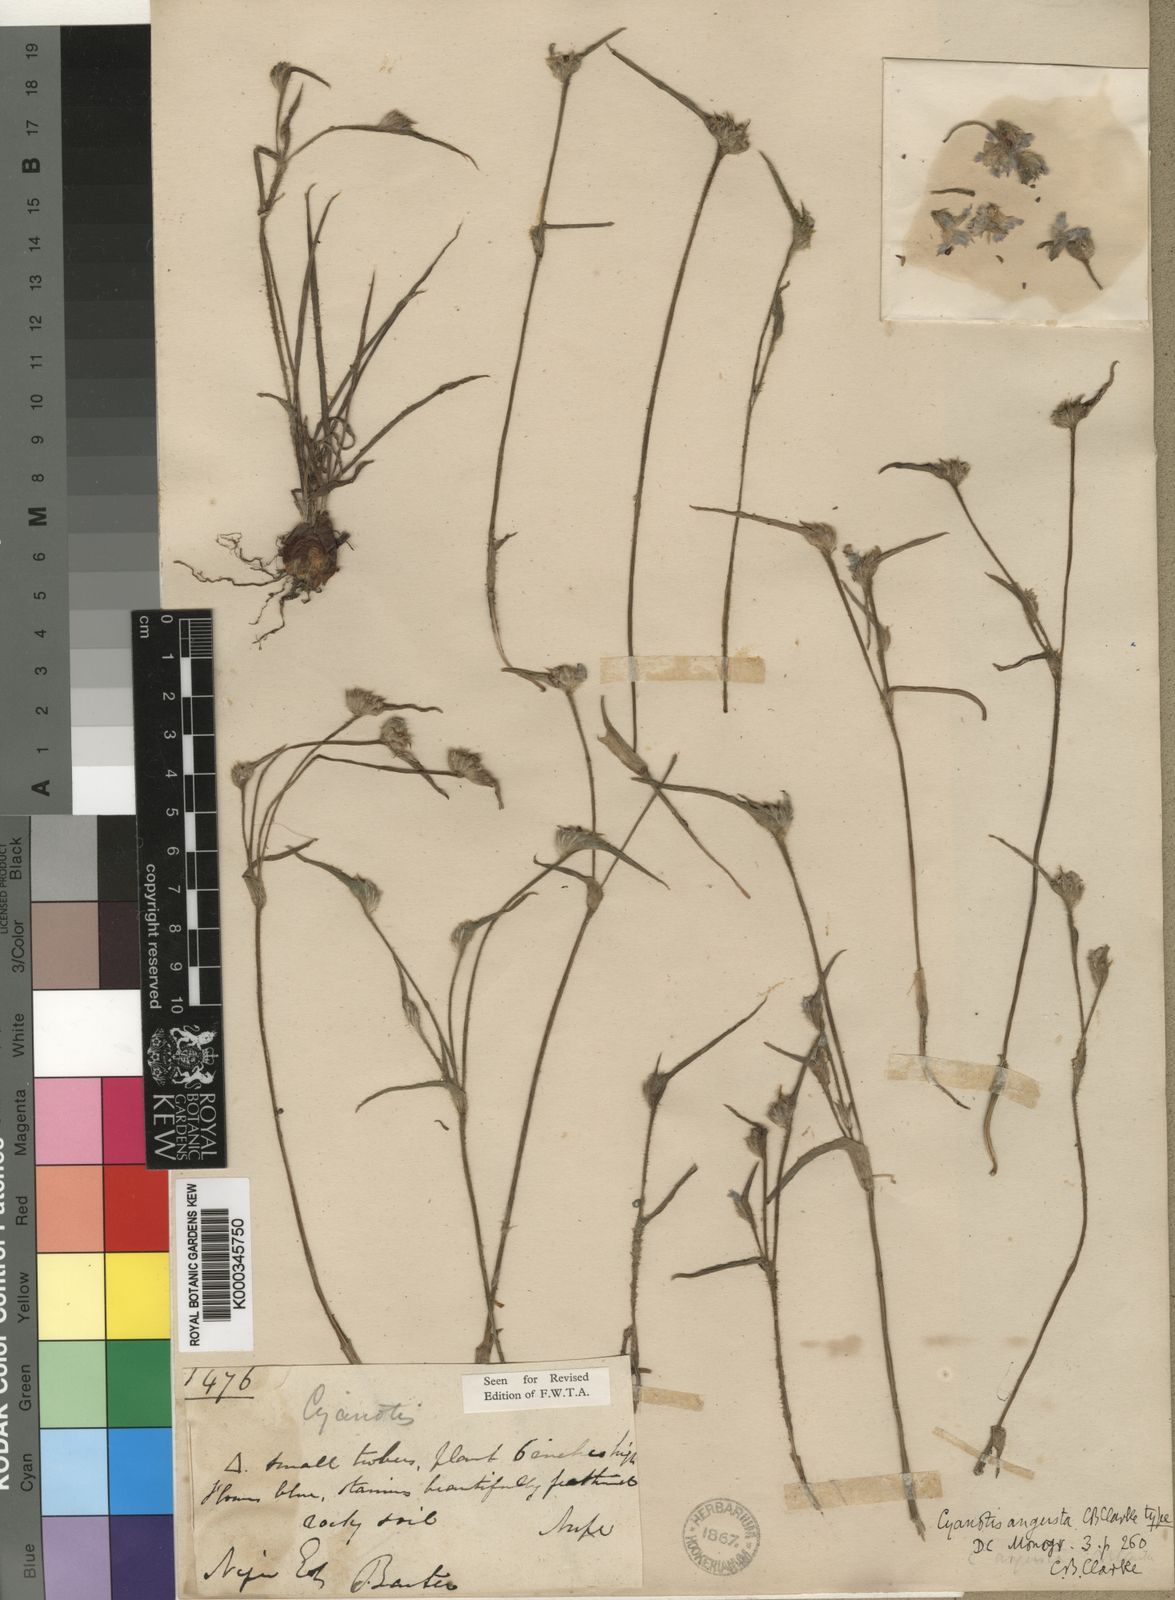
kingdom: Plantae
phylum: Tracheophyta
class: Liliopsida
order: Commelinales
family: Commelinaceae
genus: Cyanotis
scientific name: Cyanotis angusta
